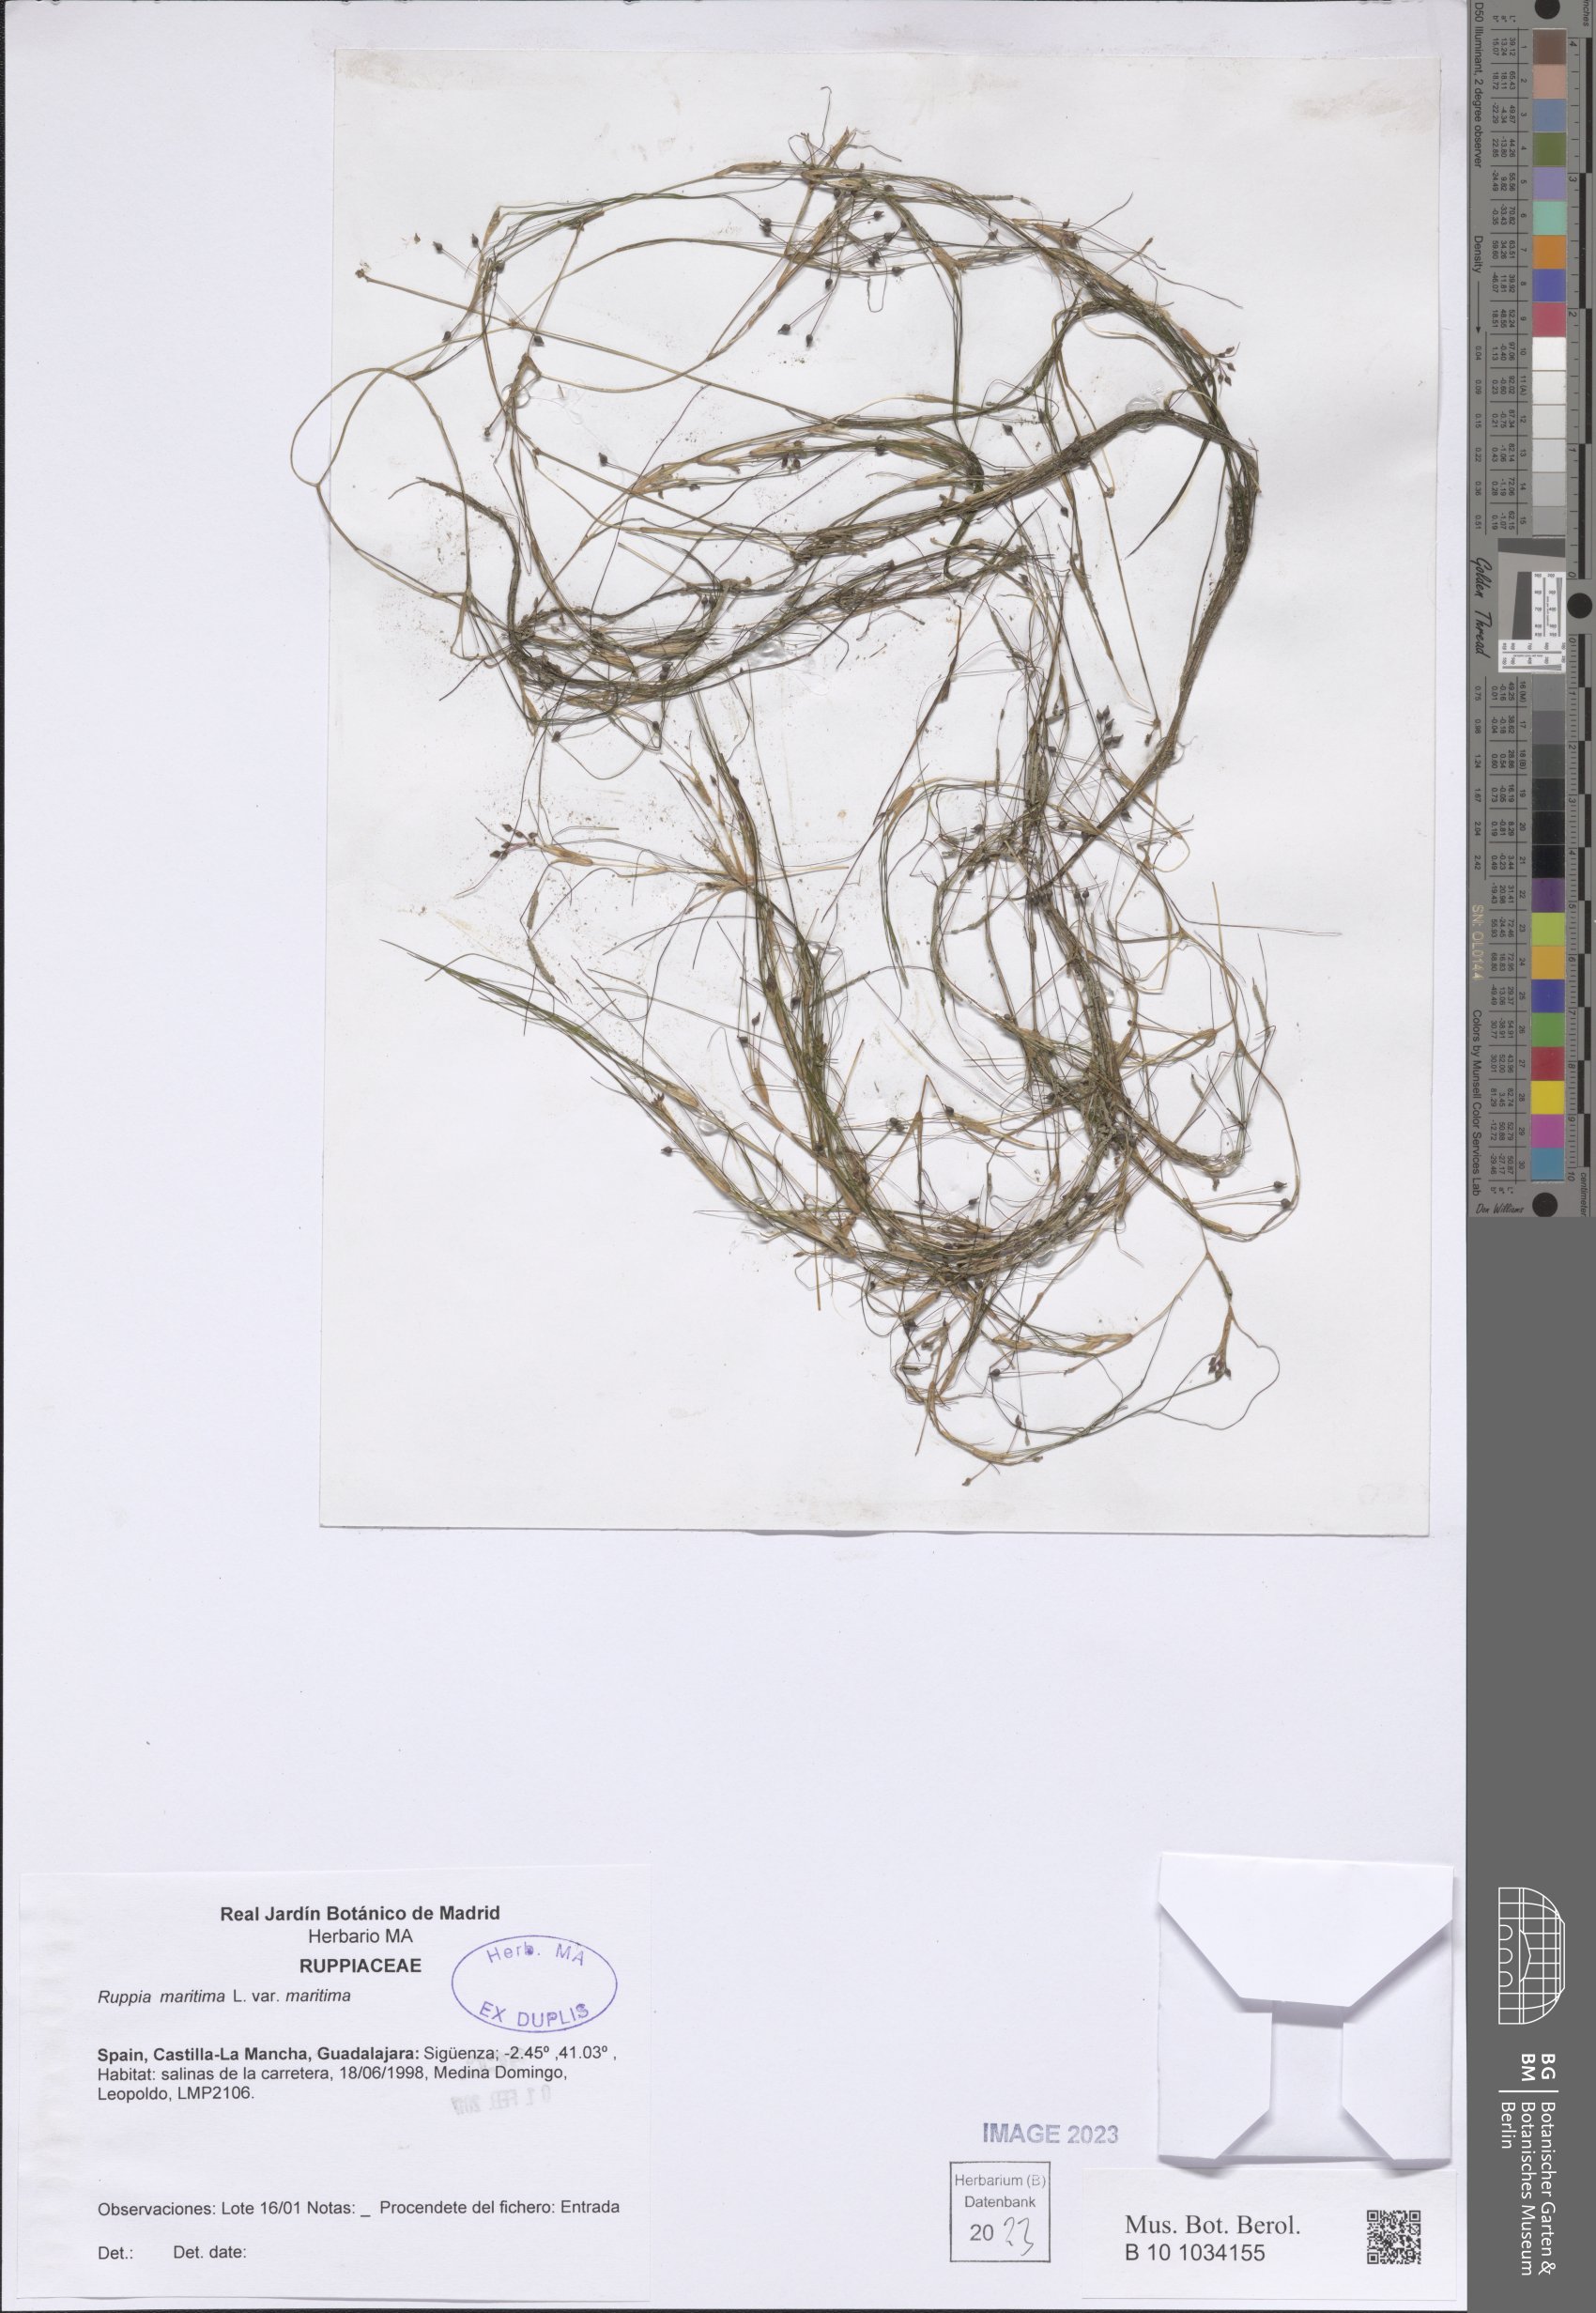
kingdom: Plantae
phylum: Tracheophyta
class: Liliopsida
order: Alismatales
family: Ruppiaceae
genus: Ruppia
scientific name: Ruppia maritima
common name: Beaked tasselweed
